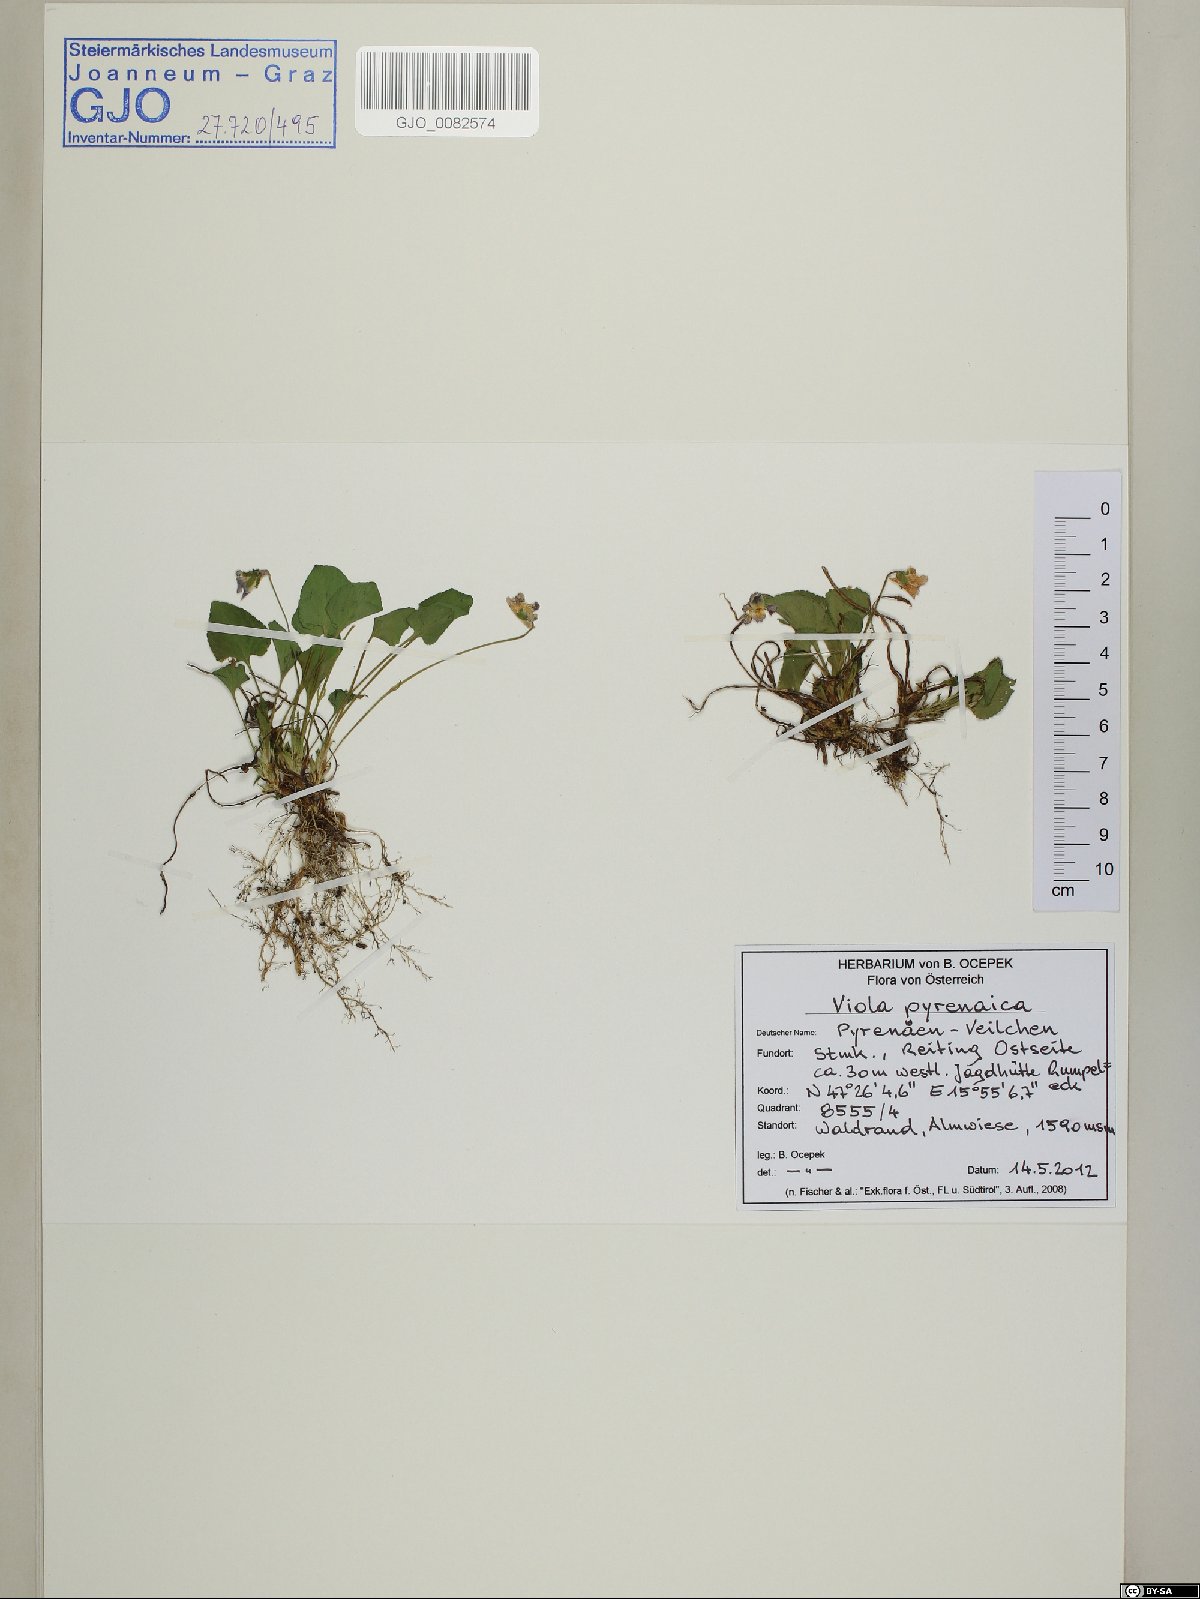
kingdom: Plantae
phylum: Tracheophyta
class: Magnoliopsida
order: Malpighiales
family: Violaceae
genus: Viola
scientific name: Viola pyrenaica
